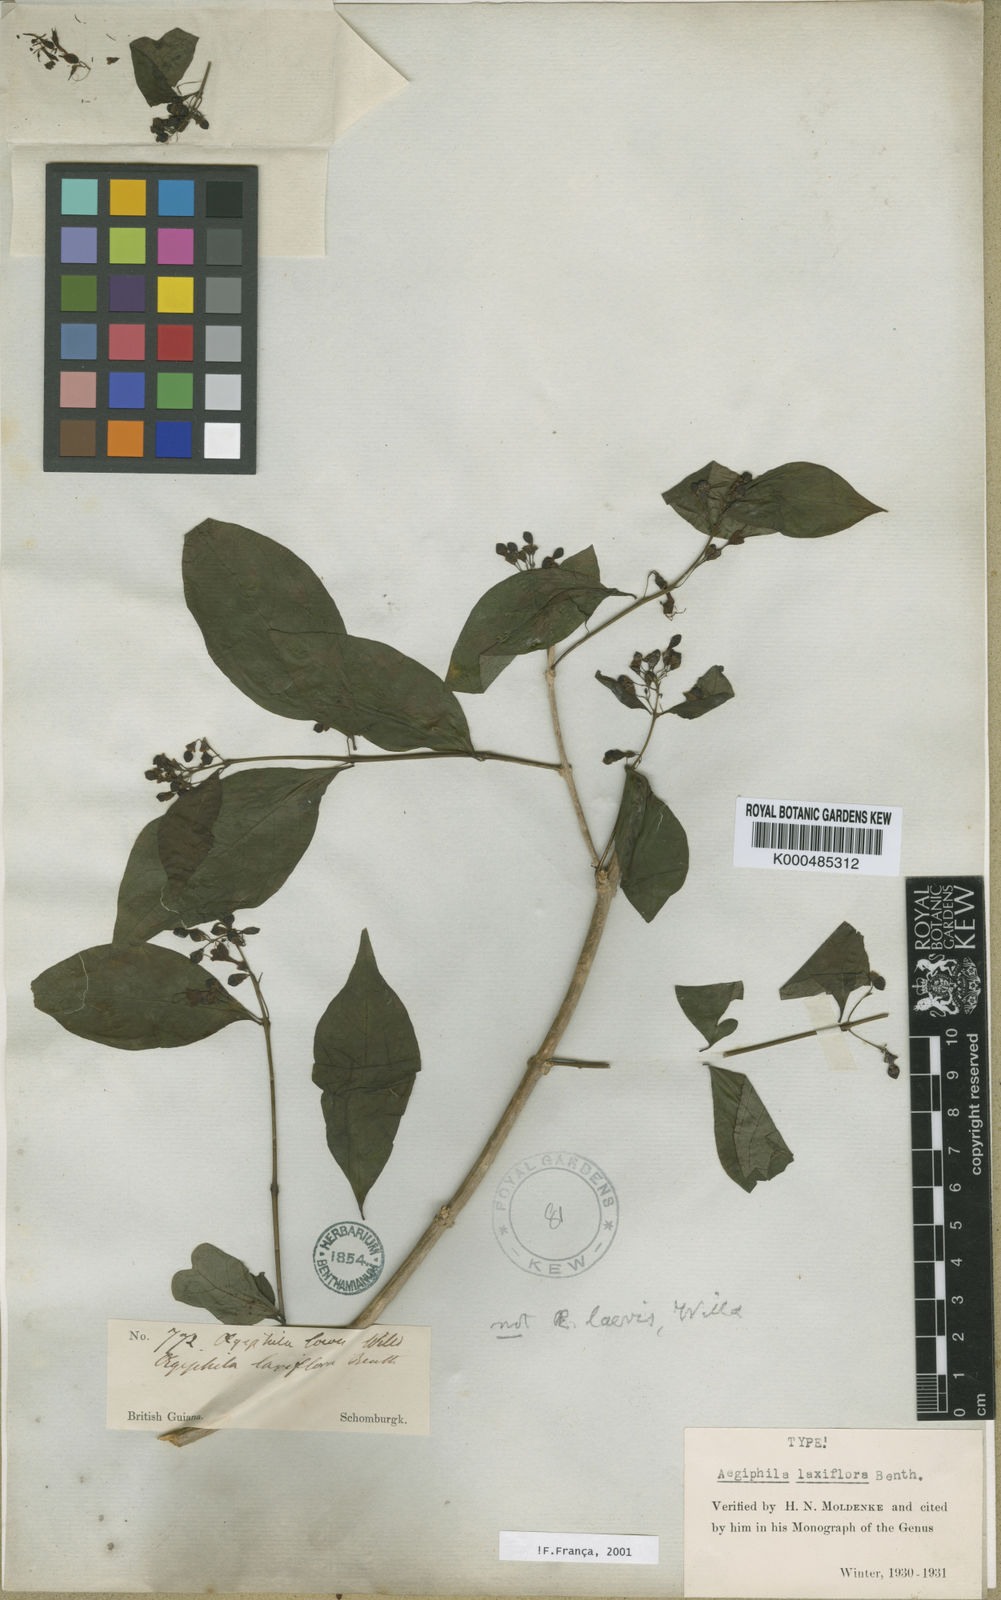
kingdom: Plantae
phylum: Tracheophyta
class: Magnoliopsida
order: Lamiales
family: Lamiaceae
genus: Aegiphila
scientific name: Aegiphila laxiflora
